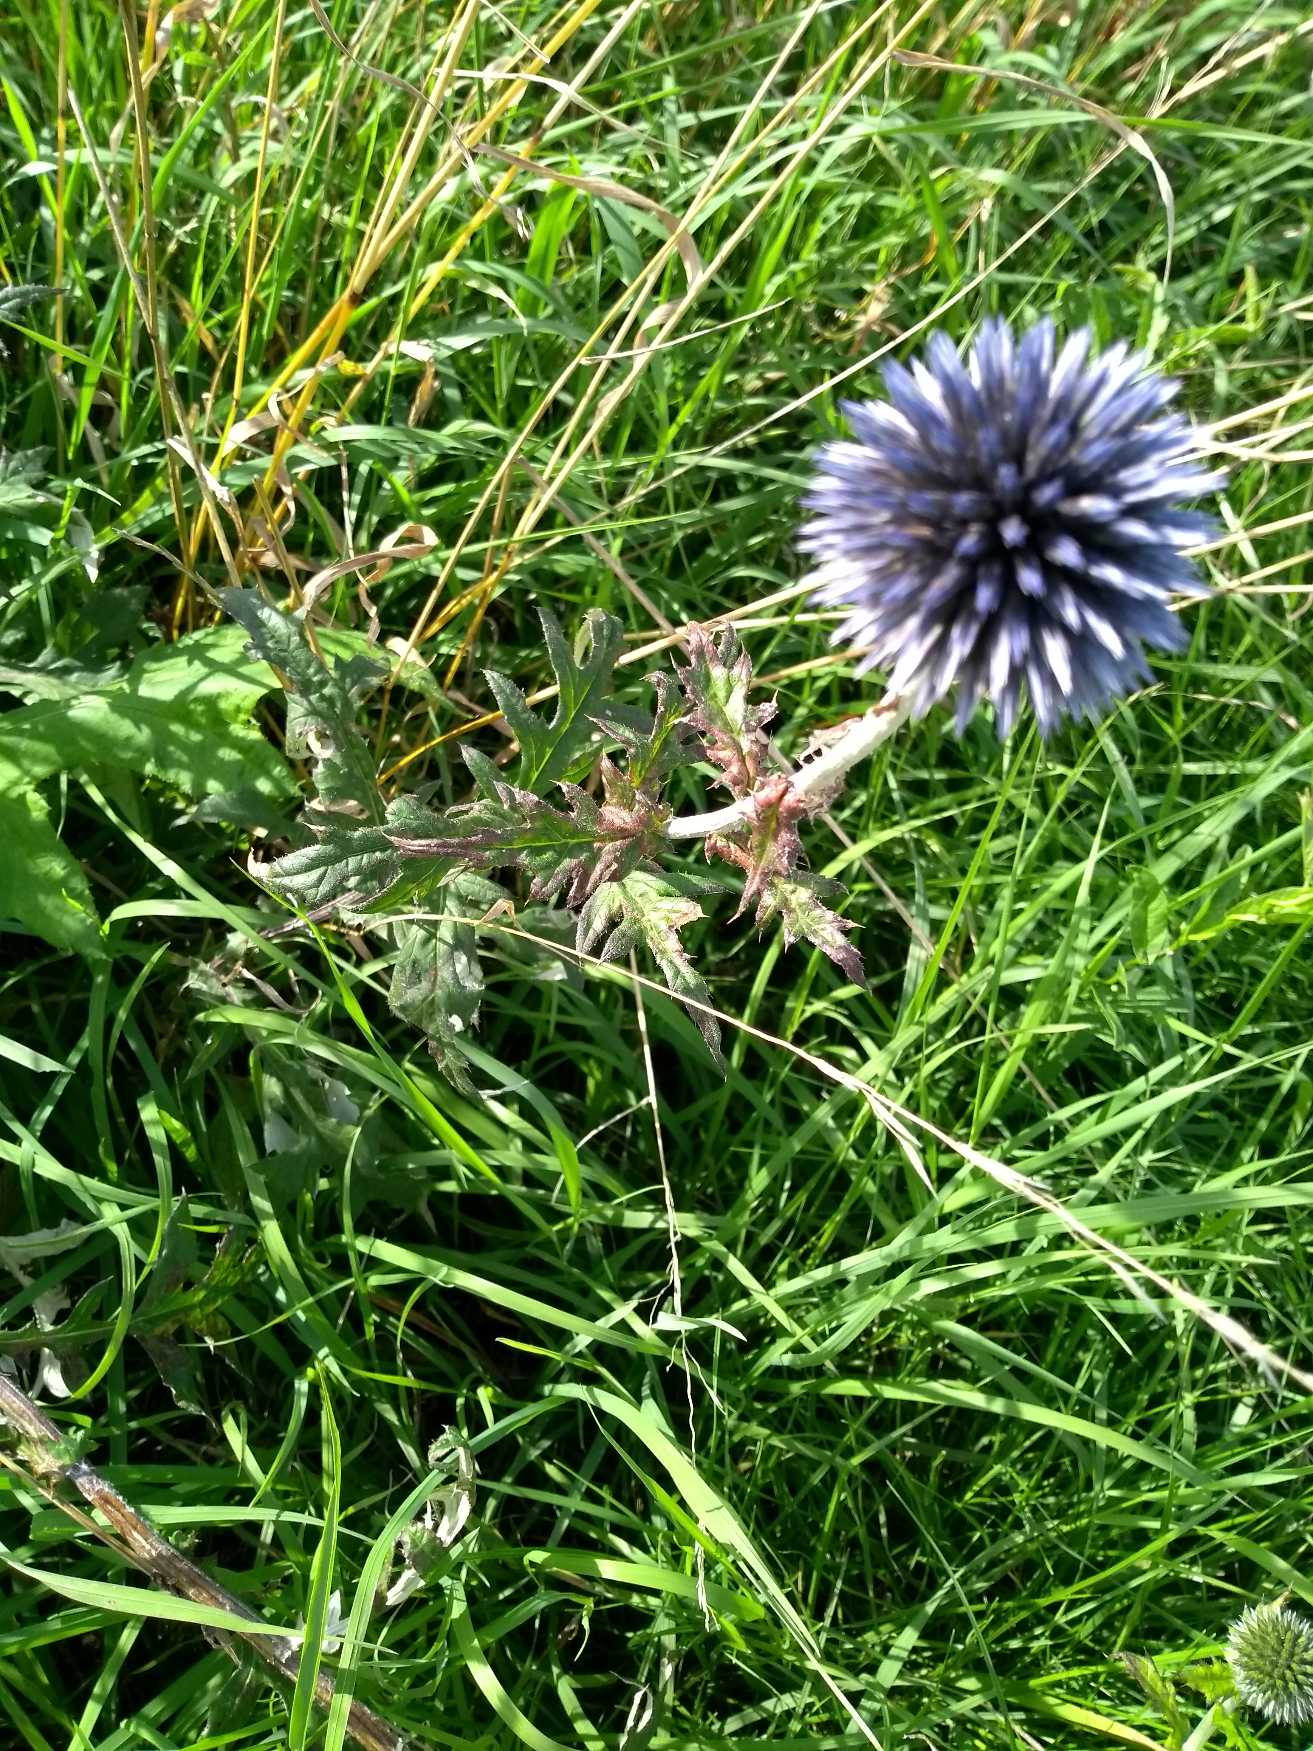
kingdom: Plantae
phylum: Tracheophyta
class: Magnoliopsida
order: Asterales
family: Asteraceae
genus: Echinops
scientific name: Echinops bannaticus
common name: Blå tidselkugle
